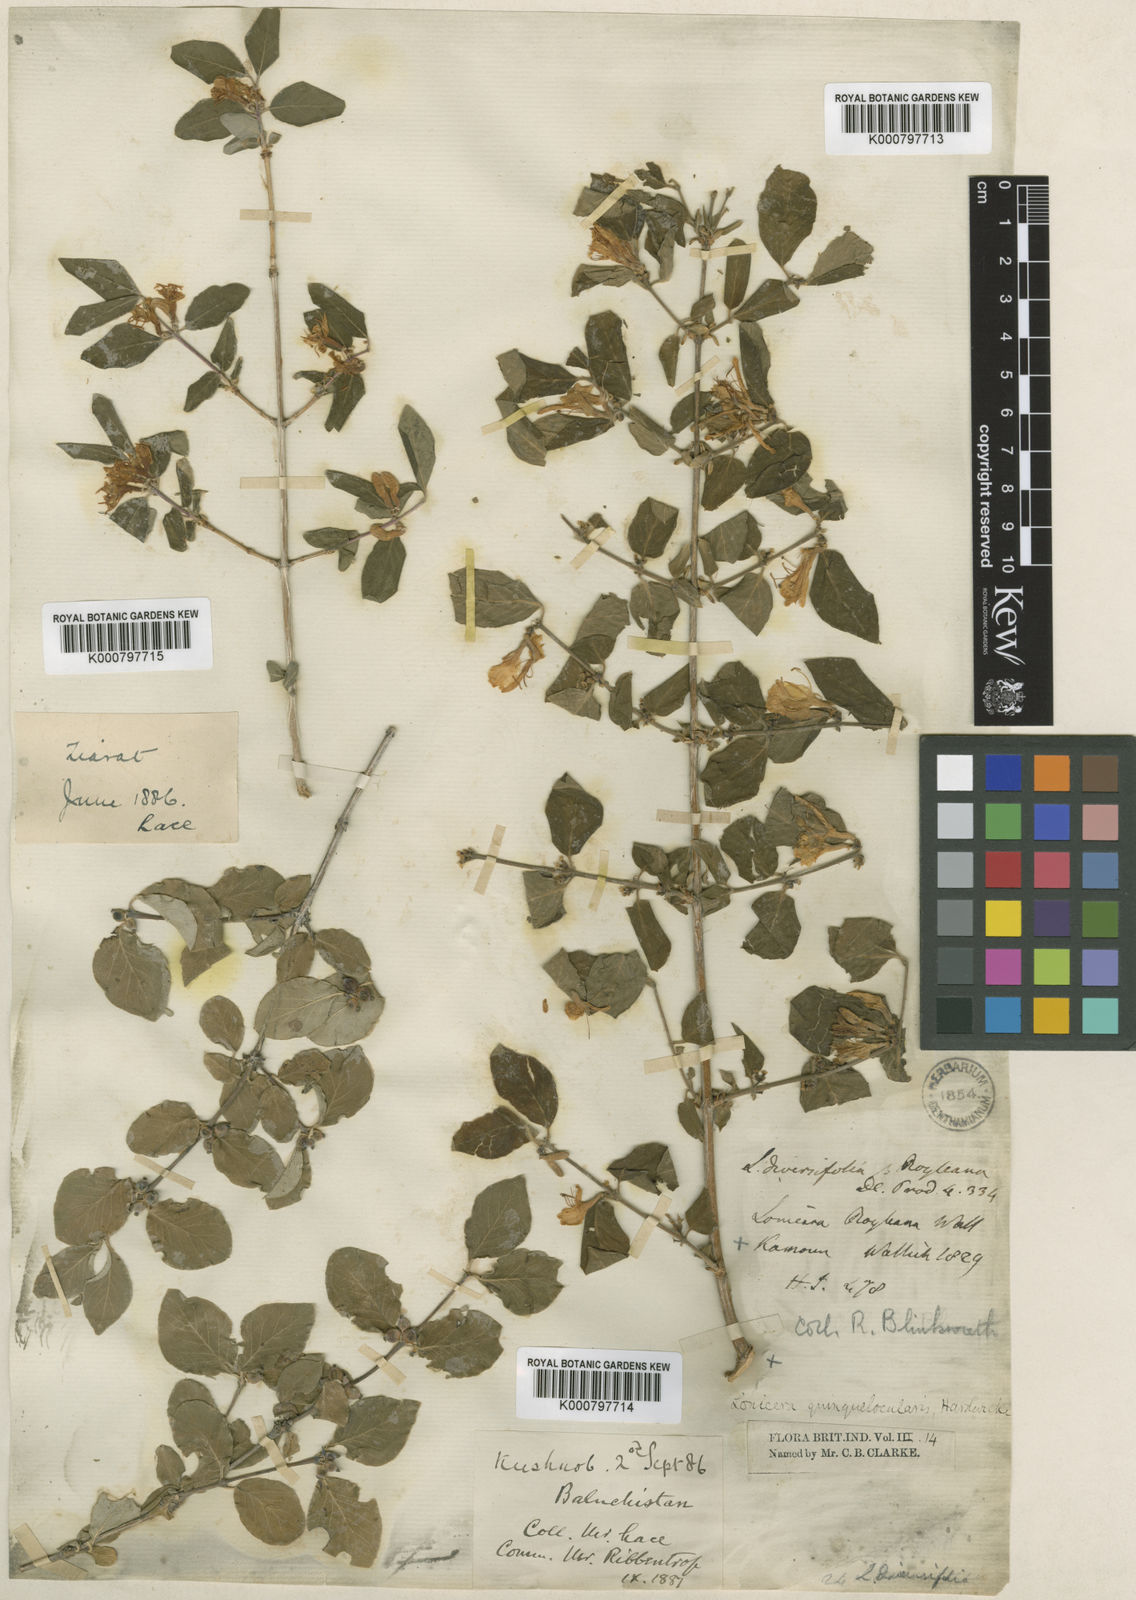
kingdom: Plantae
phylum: Tracheophyta
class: Magnoliopsida
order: Dipsacales
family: Caprifoliaceae
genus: Lonicera
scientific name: Lonicera quinquelocularis
